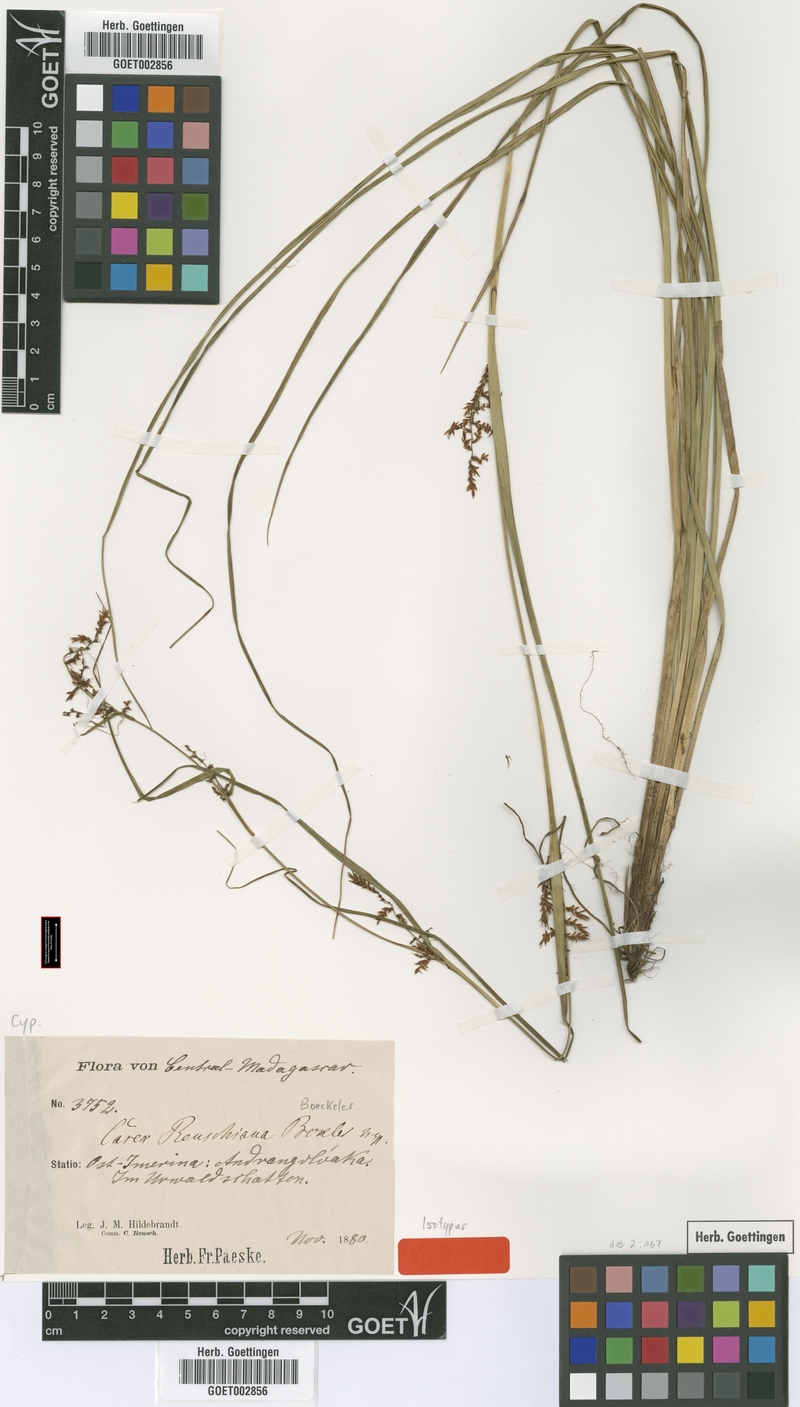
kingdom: Plantae
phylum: Tracheophyta
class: Liliopsida
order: Poales
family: Cyperaceae
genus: Carex
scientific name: Carex renschiana
